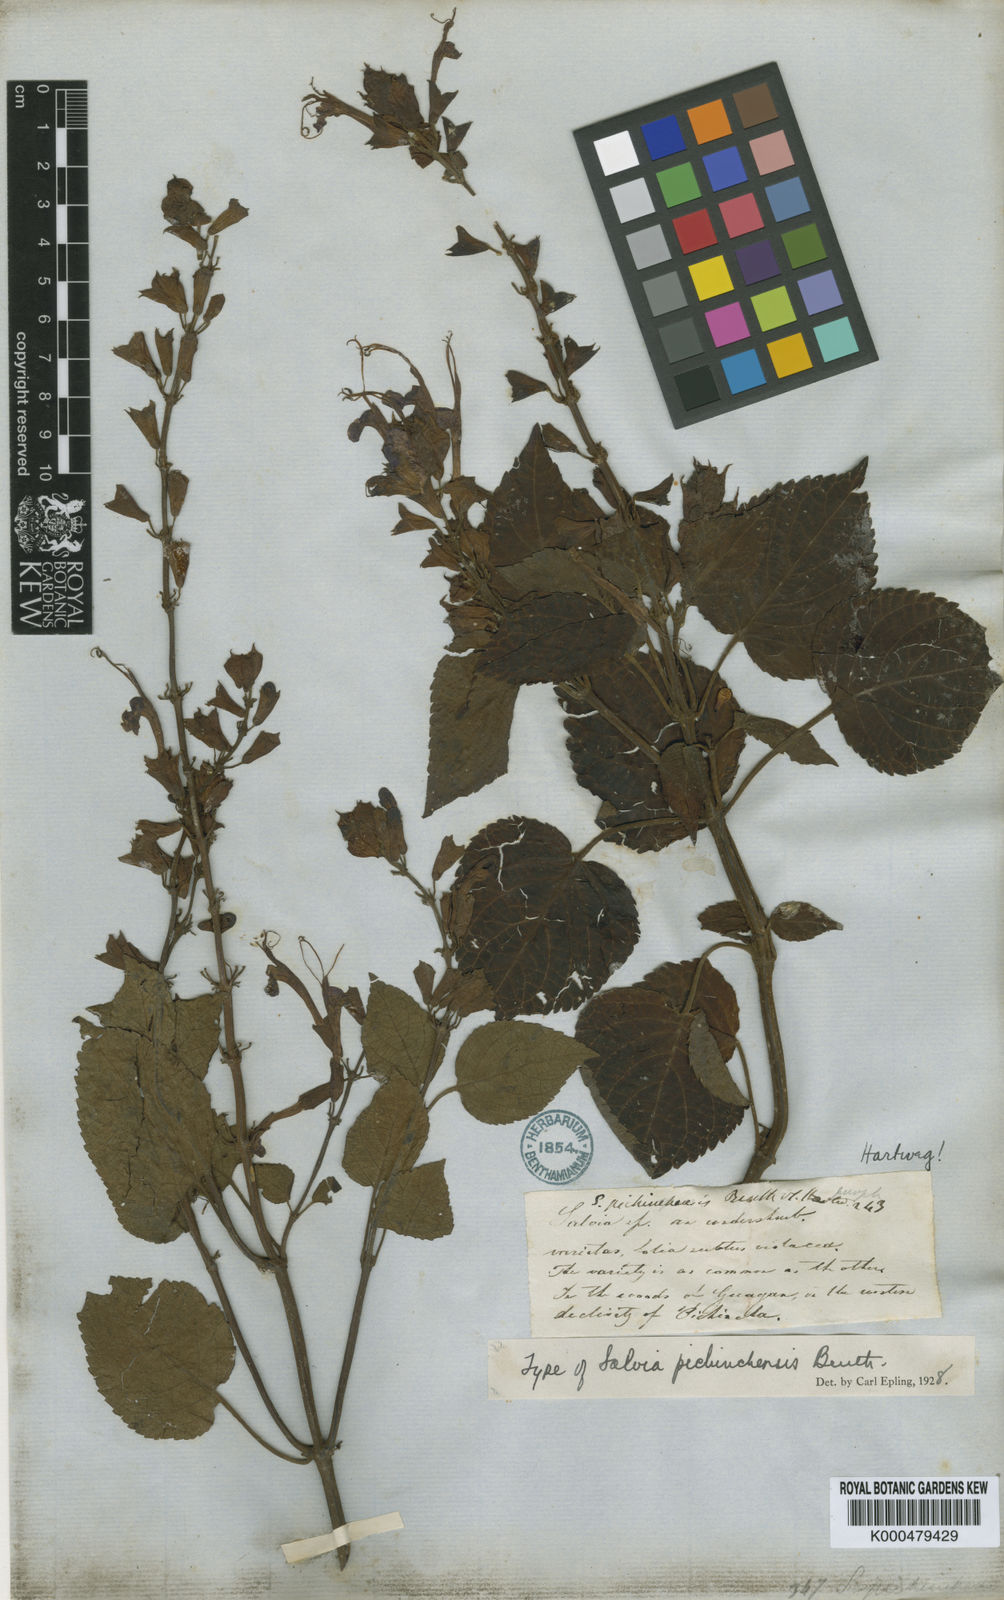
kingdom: Plantae
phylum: Tracheophyta
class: Magnoliopsida
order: Lamiales
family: Lamiaceae
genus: Salvia
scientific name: Salvia pichinchensis
